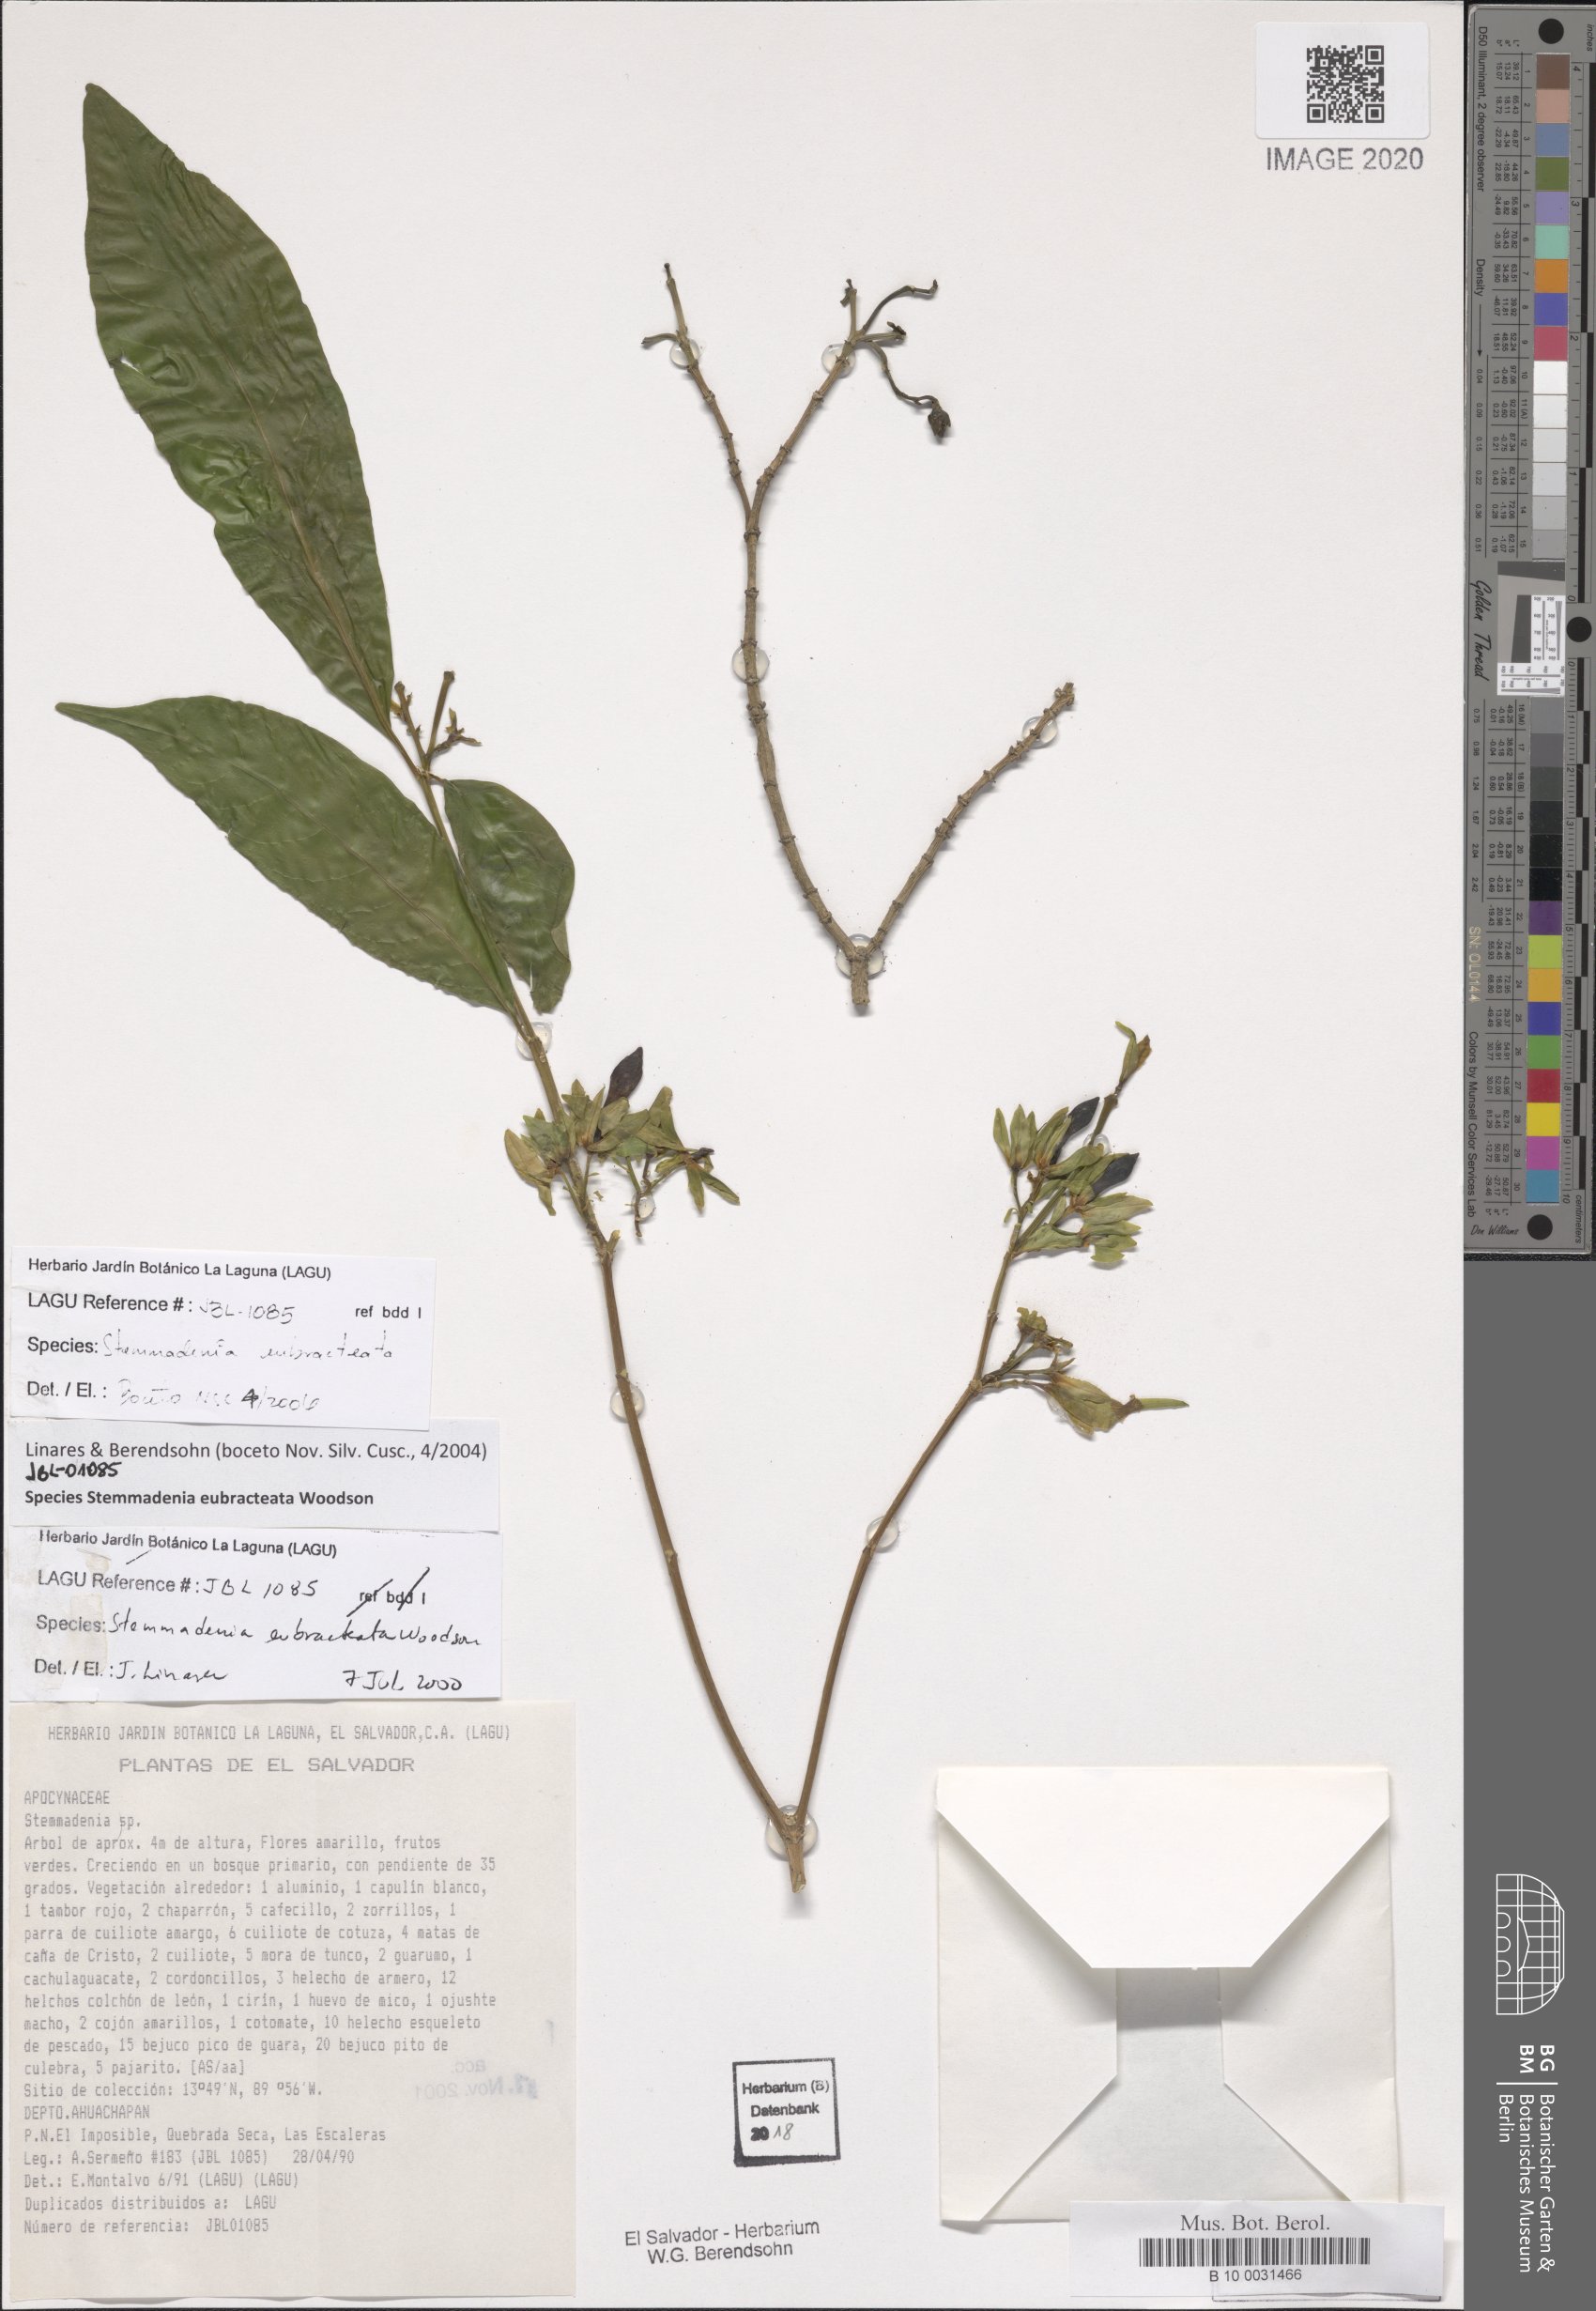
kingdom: Plantae
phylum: Tracheophyta
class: Magnoliopsida
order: Gentianales
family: Apocynaceae
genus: Tabernaemontana
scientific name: Tabernaemontana eubracteata
